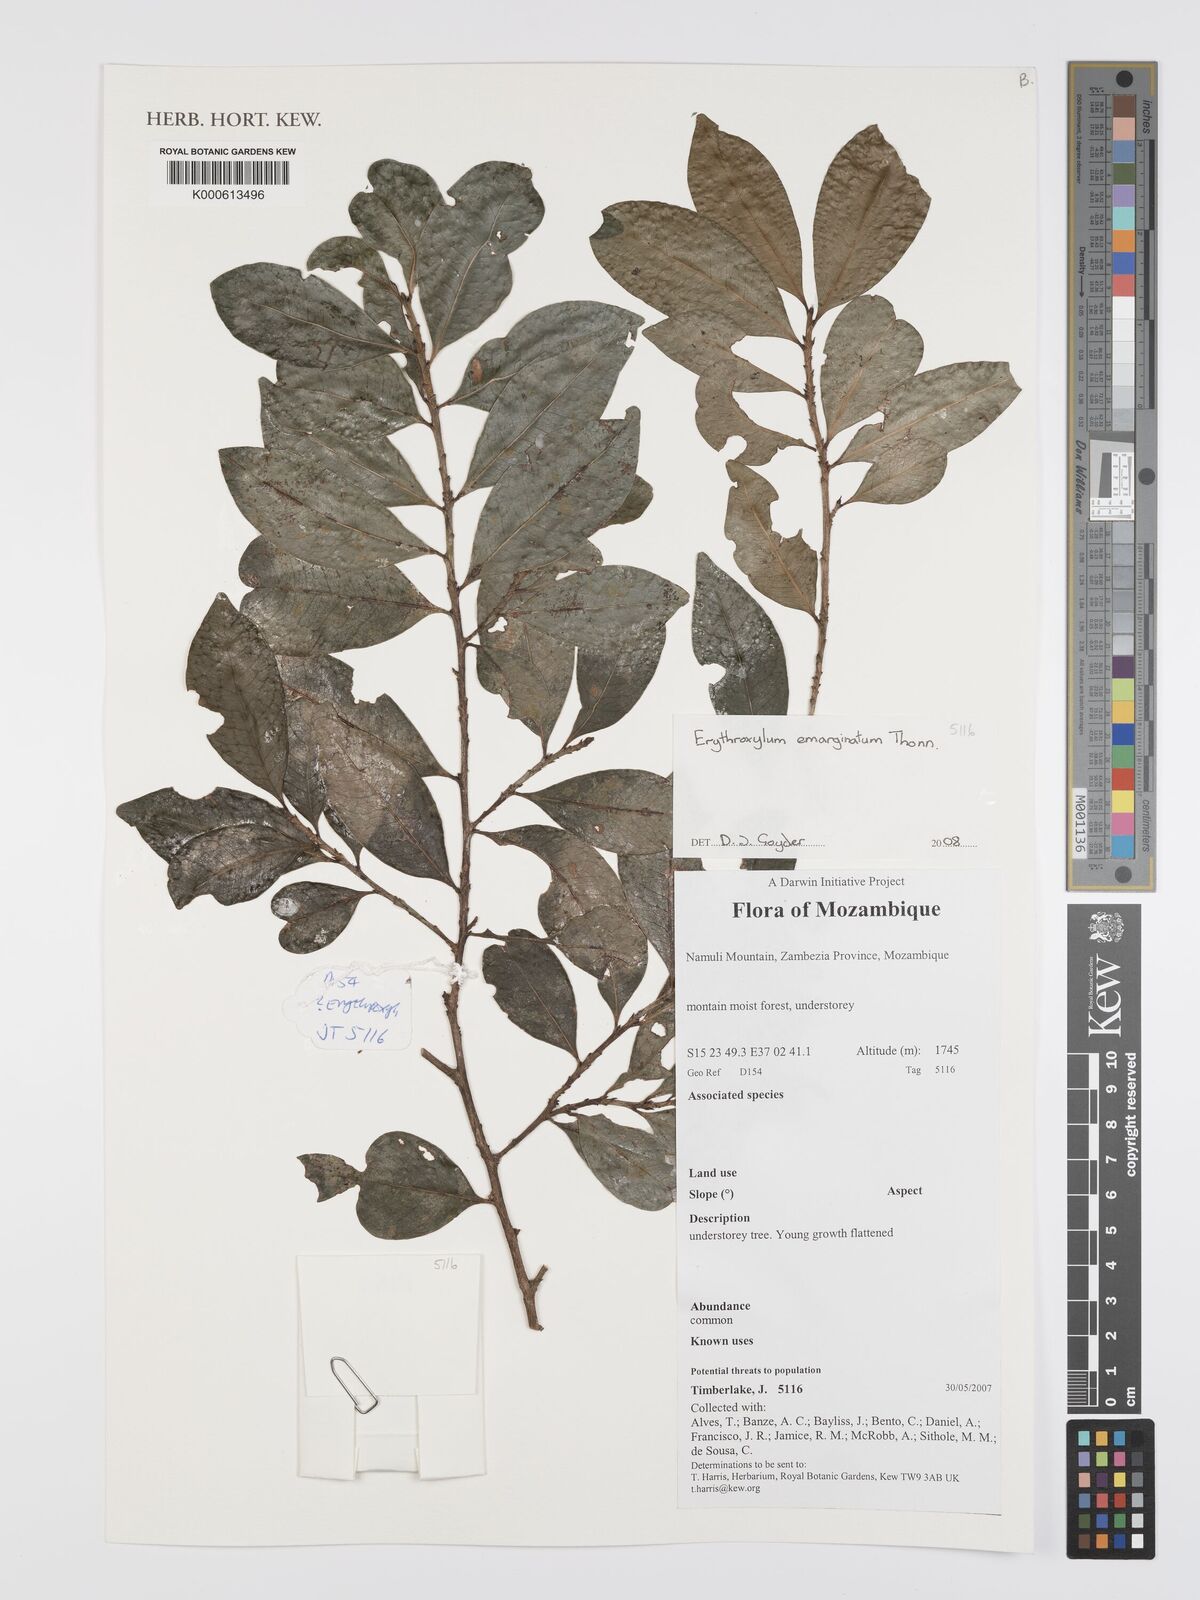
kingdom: Plantae
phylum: Tracheophyta
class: Magnoliopsida
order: Malpighiales
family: Erythroxylaceae
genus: Erythroxylum
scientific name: Erythroxylum emarginatum
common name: African coca-tree
